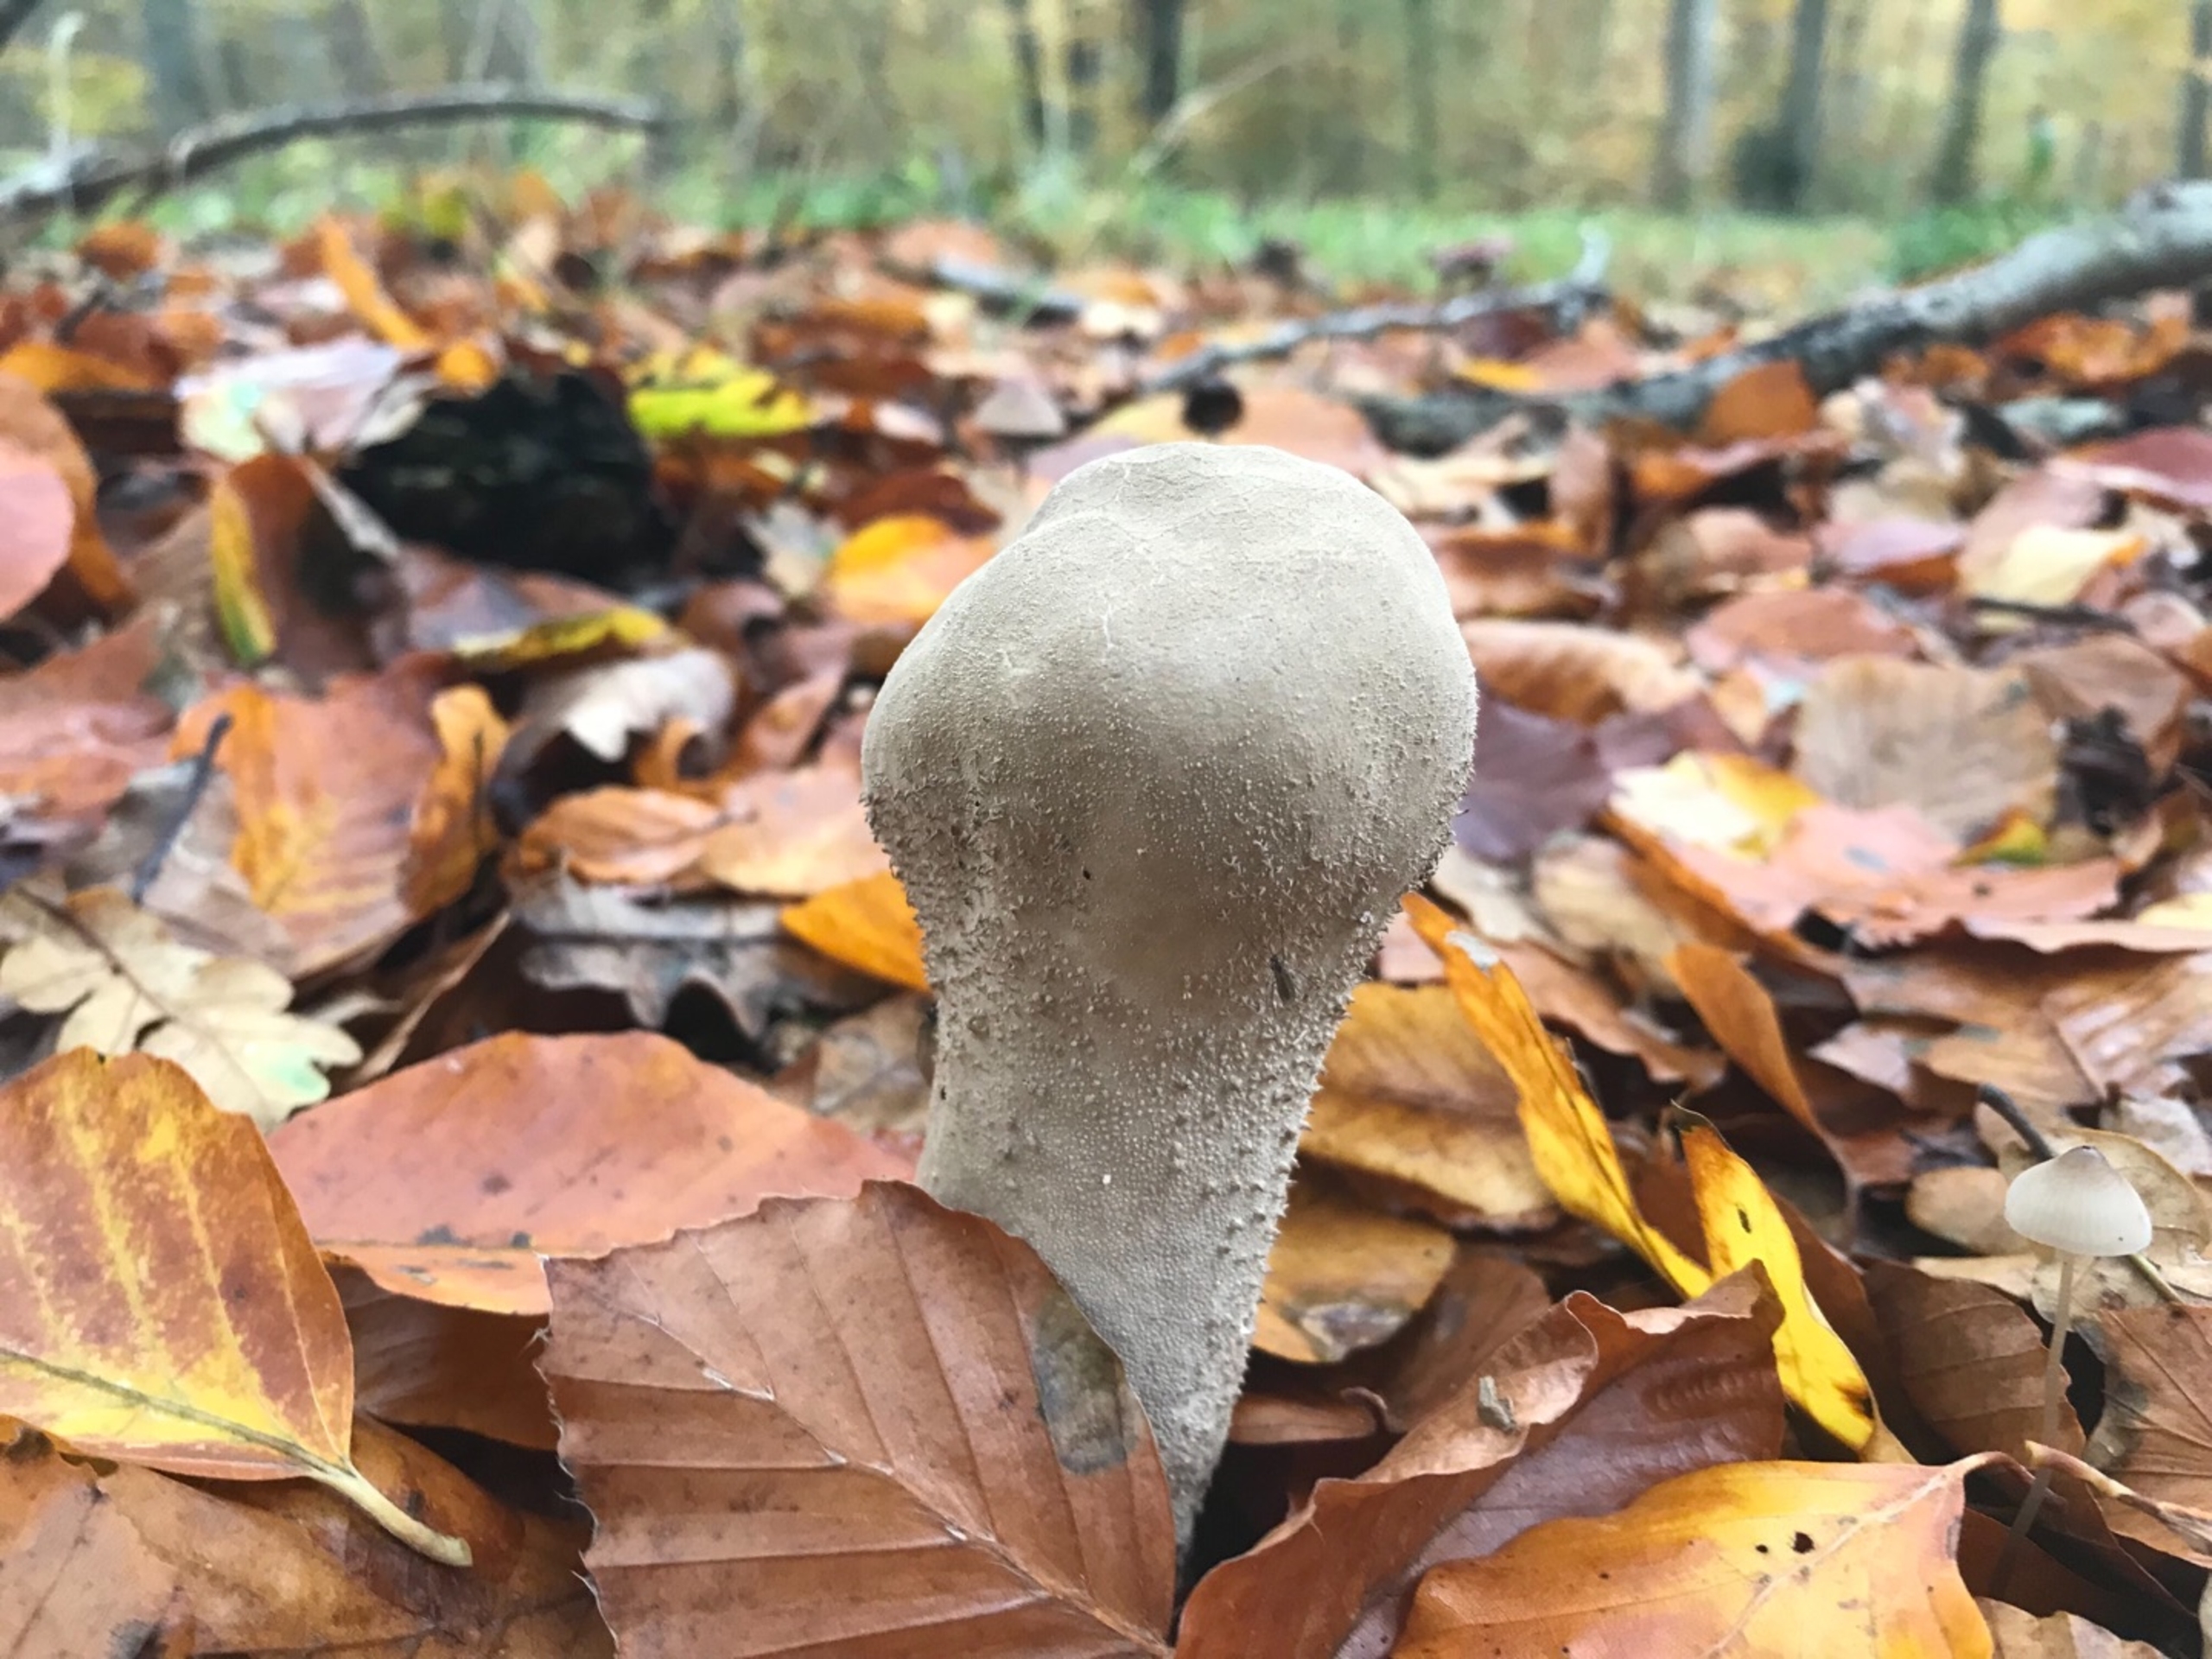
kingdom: Fungi
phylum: Basidiomycota
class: Agaricomycetes
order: Agaricales
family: Lycoperdaceae
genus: Lycoperdon
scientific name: Lycoperdon excipuliforme
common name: Højstokket støvbold
